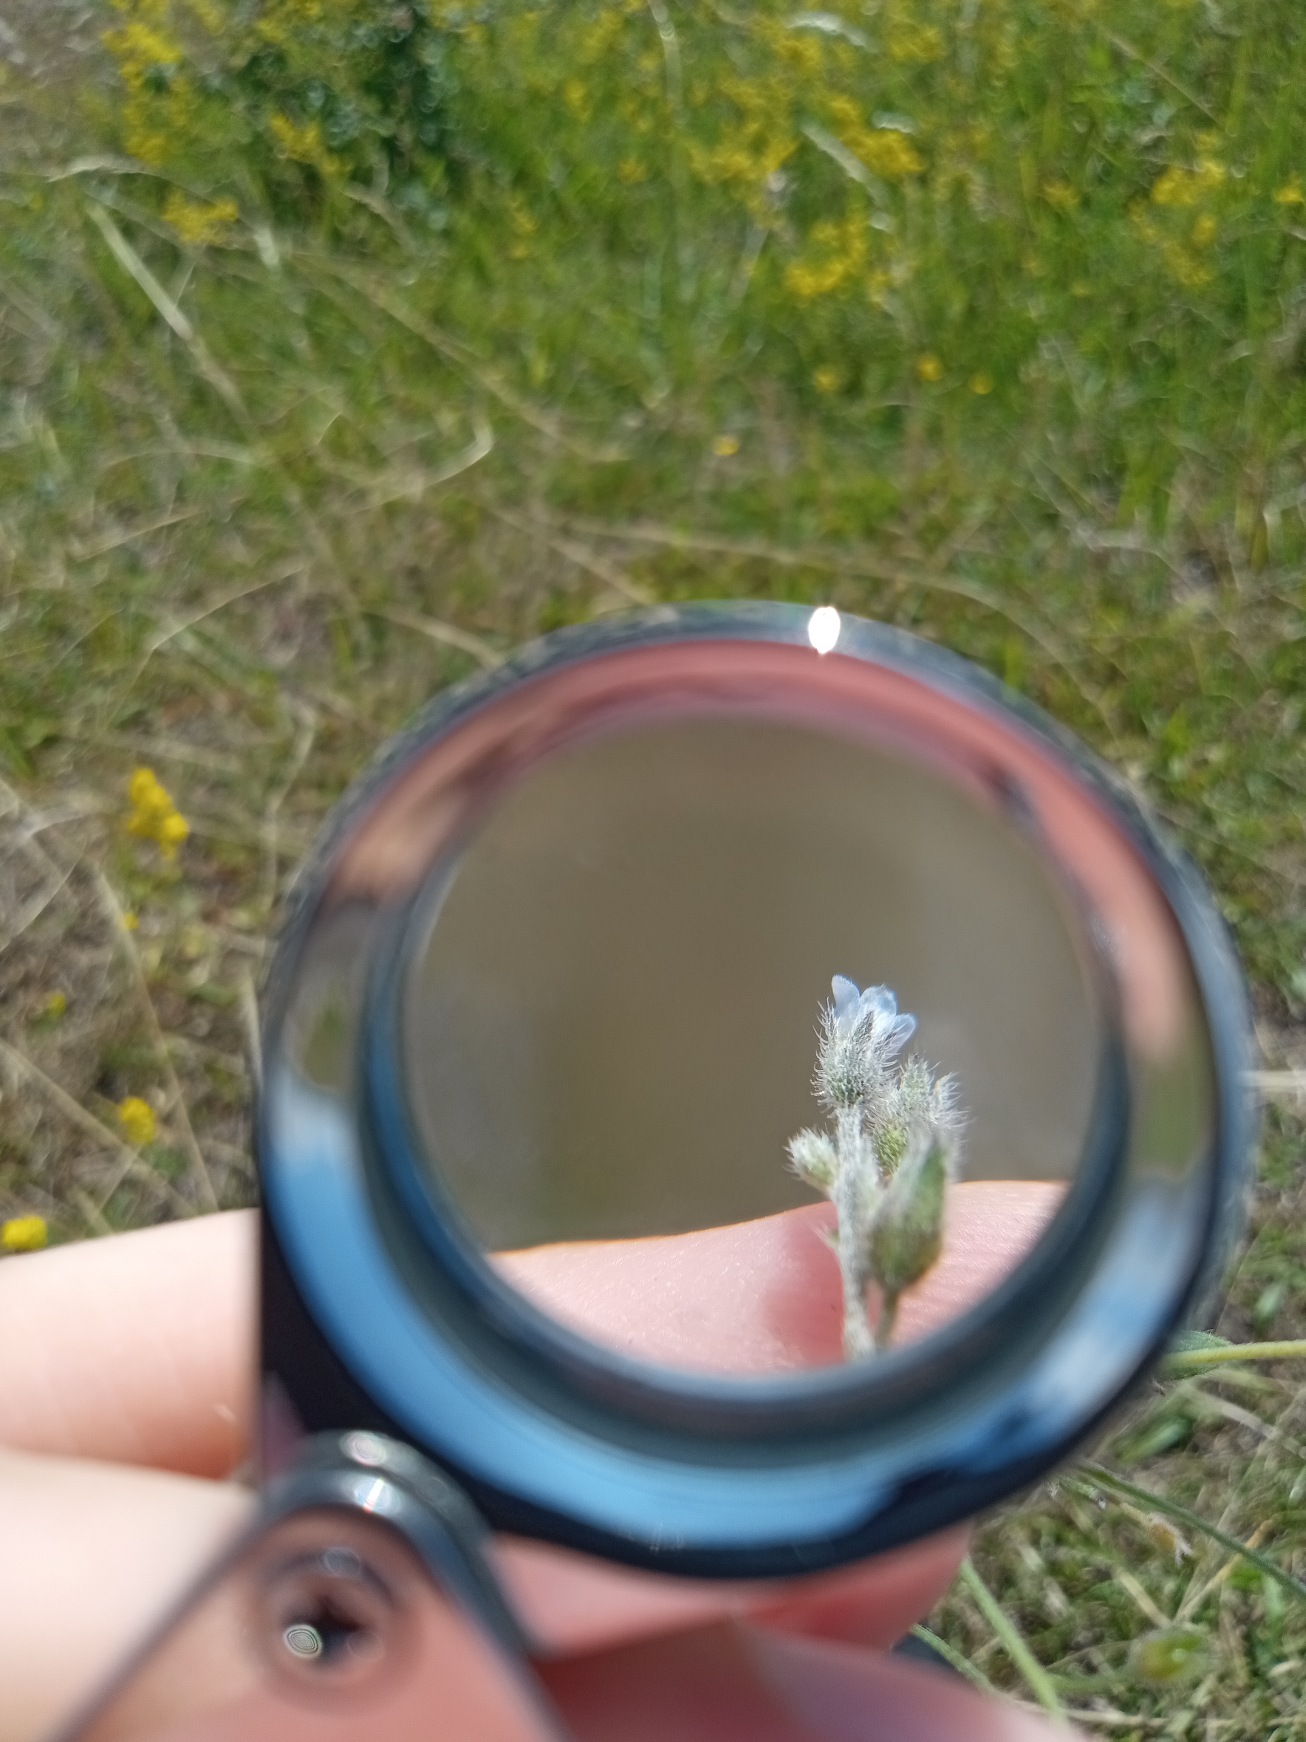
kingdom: Plantae
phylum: Tracheophyta
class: Magnoliopsida
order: Boraginales
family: Boraginaceae
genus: Myosotis
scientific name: Myosotis arvensis
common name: Mark-forglemmigej
